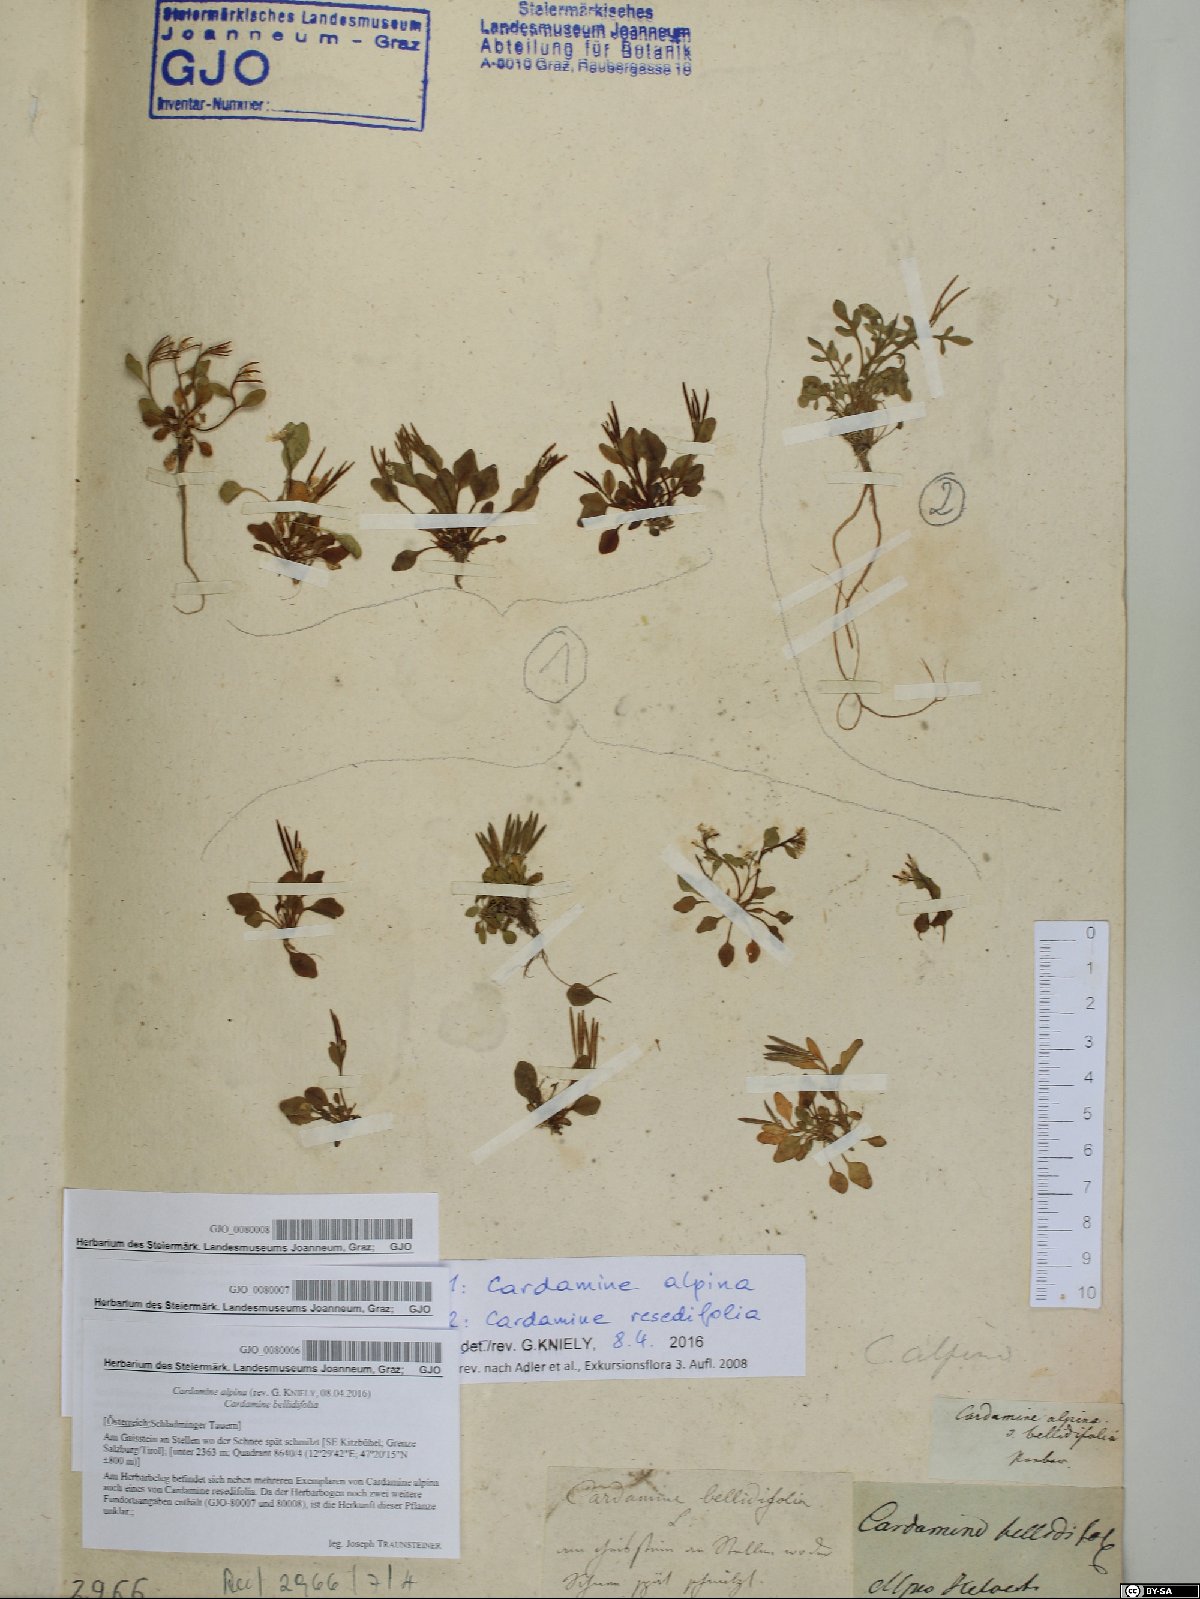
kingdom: Plantae
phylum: Tracheophyta
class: Magnoliopsida
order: Brassicales
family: Brassicaceae
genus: Cardamine
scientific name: Cardamine bellidifolia
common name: Alpine bittercress
